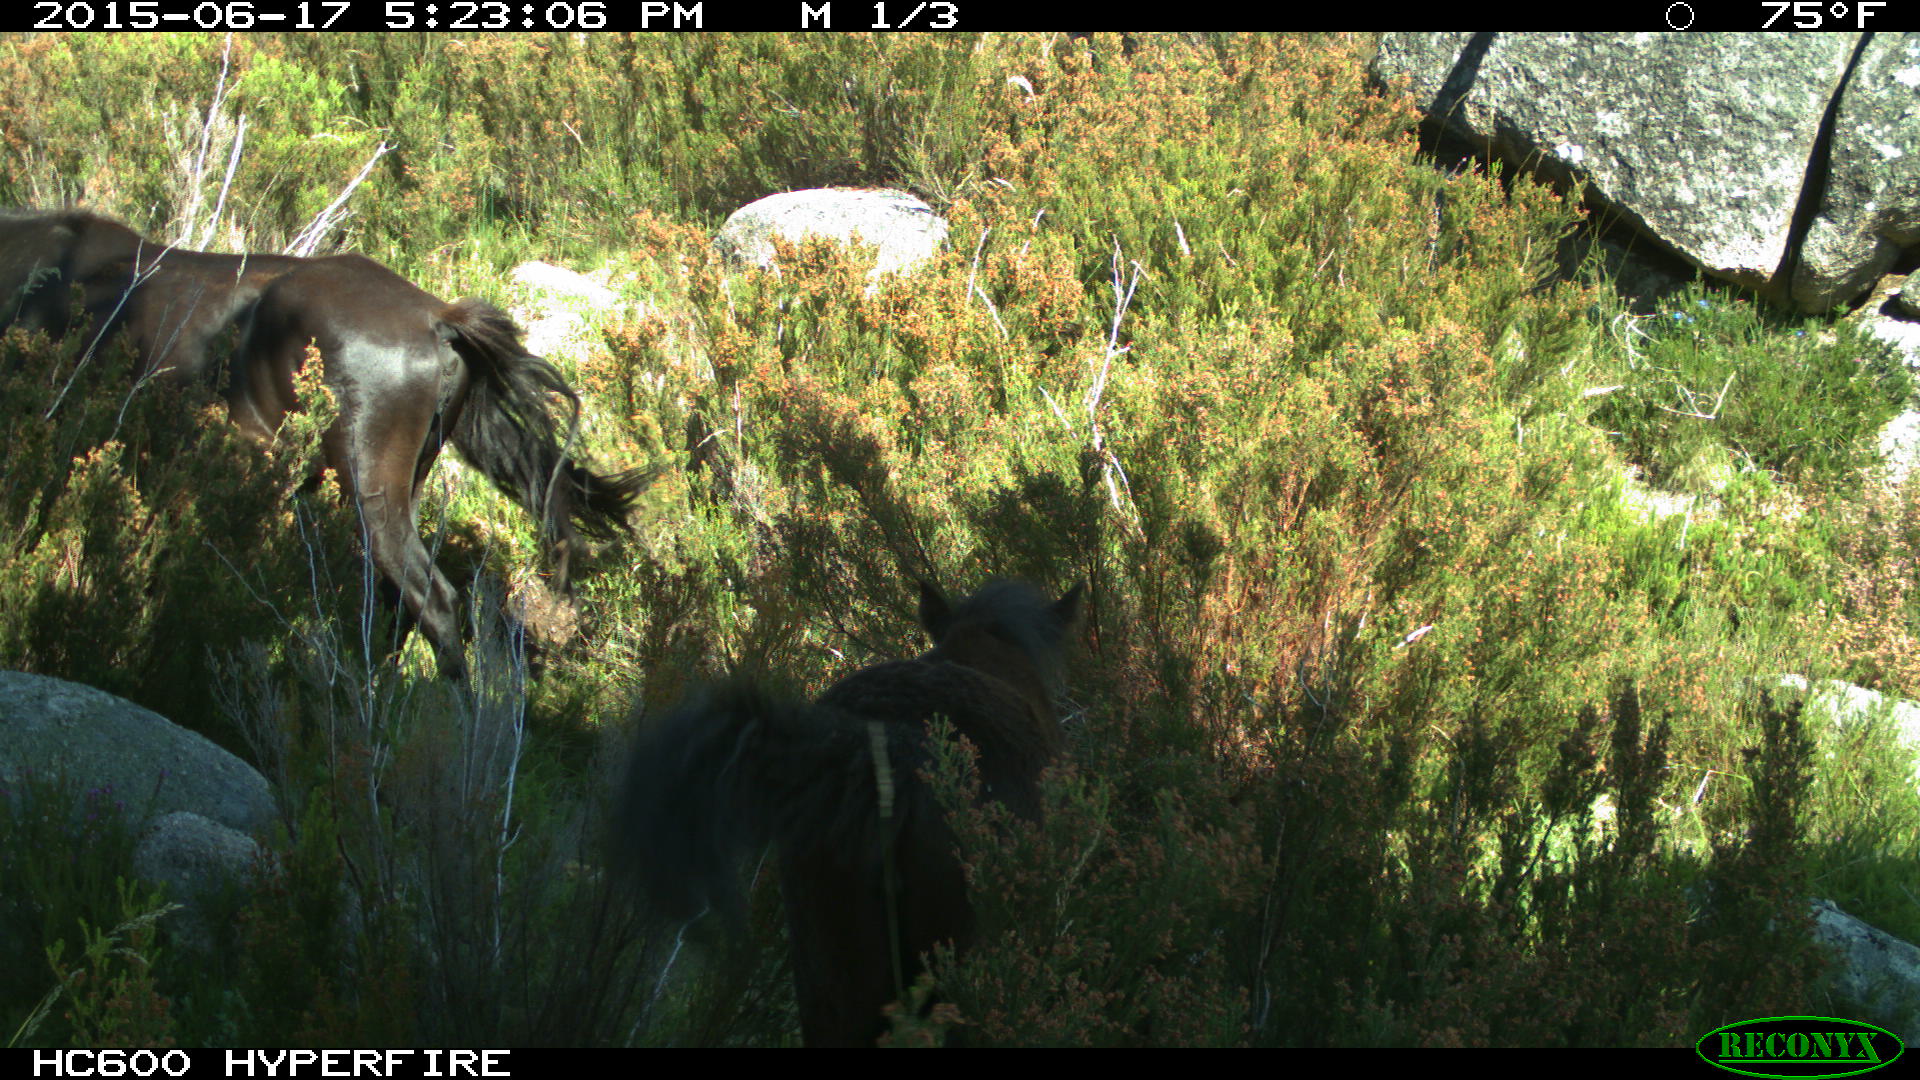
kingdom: Animalia
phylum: Chordata
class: Mammalia
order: Perissodactyla
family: Equidae
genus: Equus
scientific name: Equus caballus
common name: Horse
